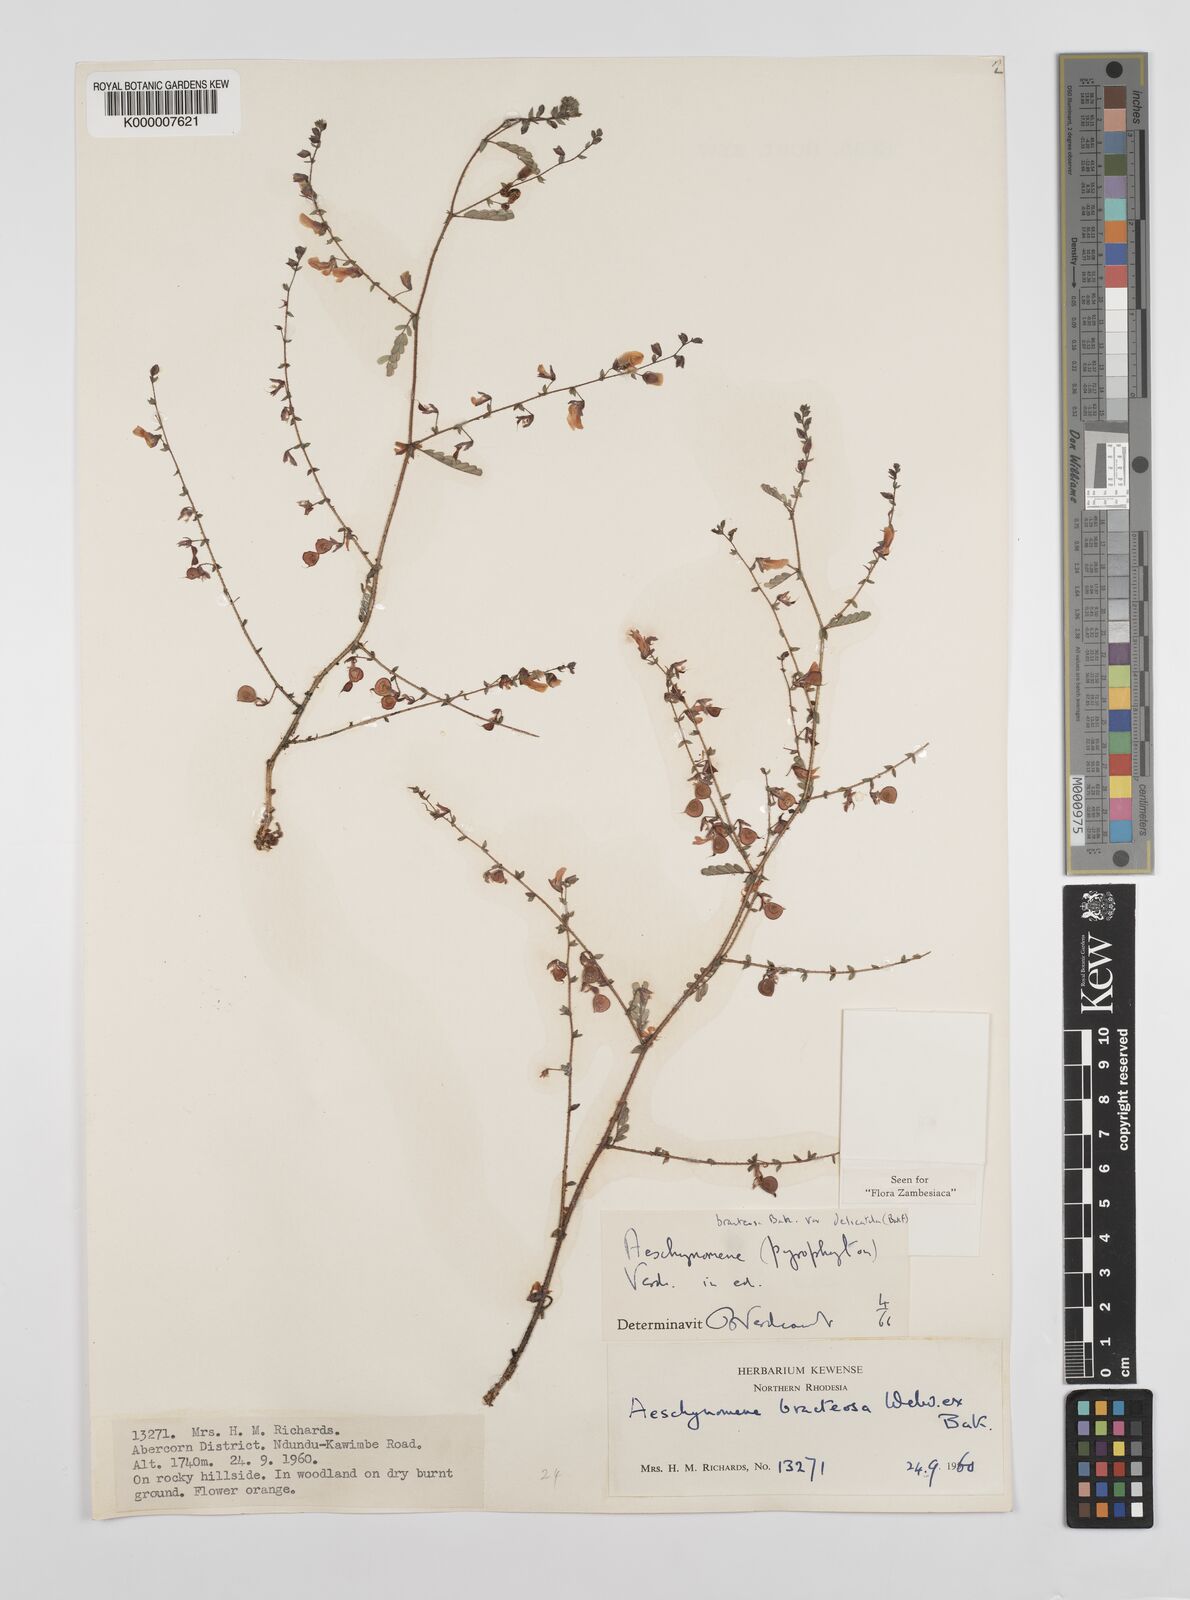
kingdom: Plantae
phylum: Tracheophyta
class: Magnoliopsida
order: Fabales
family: Fabaceae
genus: Aeschynomene
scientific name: Aeschynomene bracteosa
